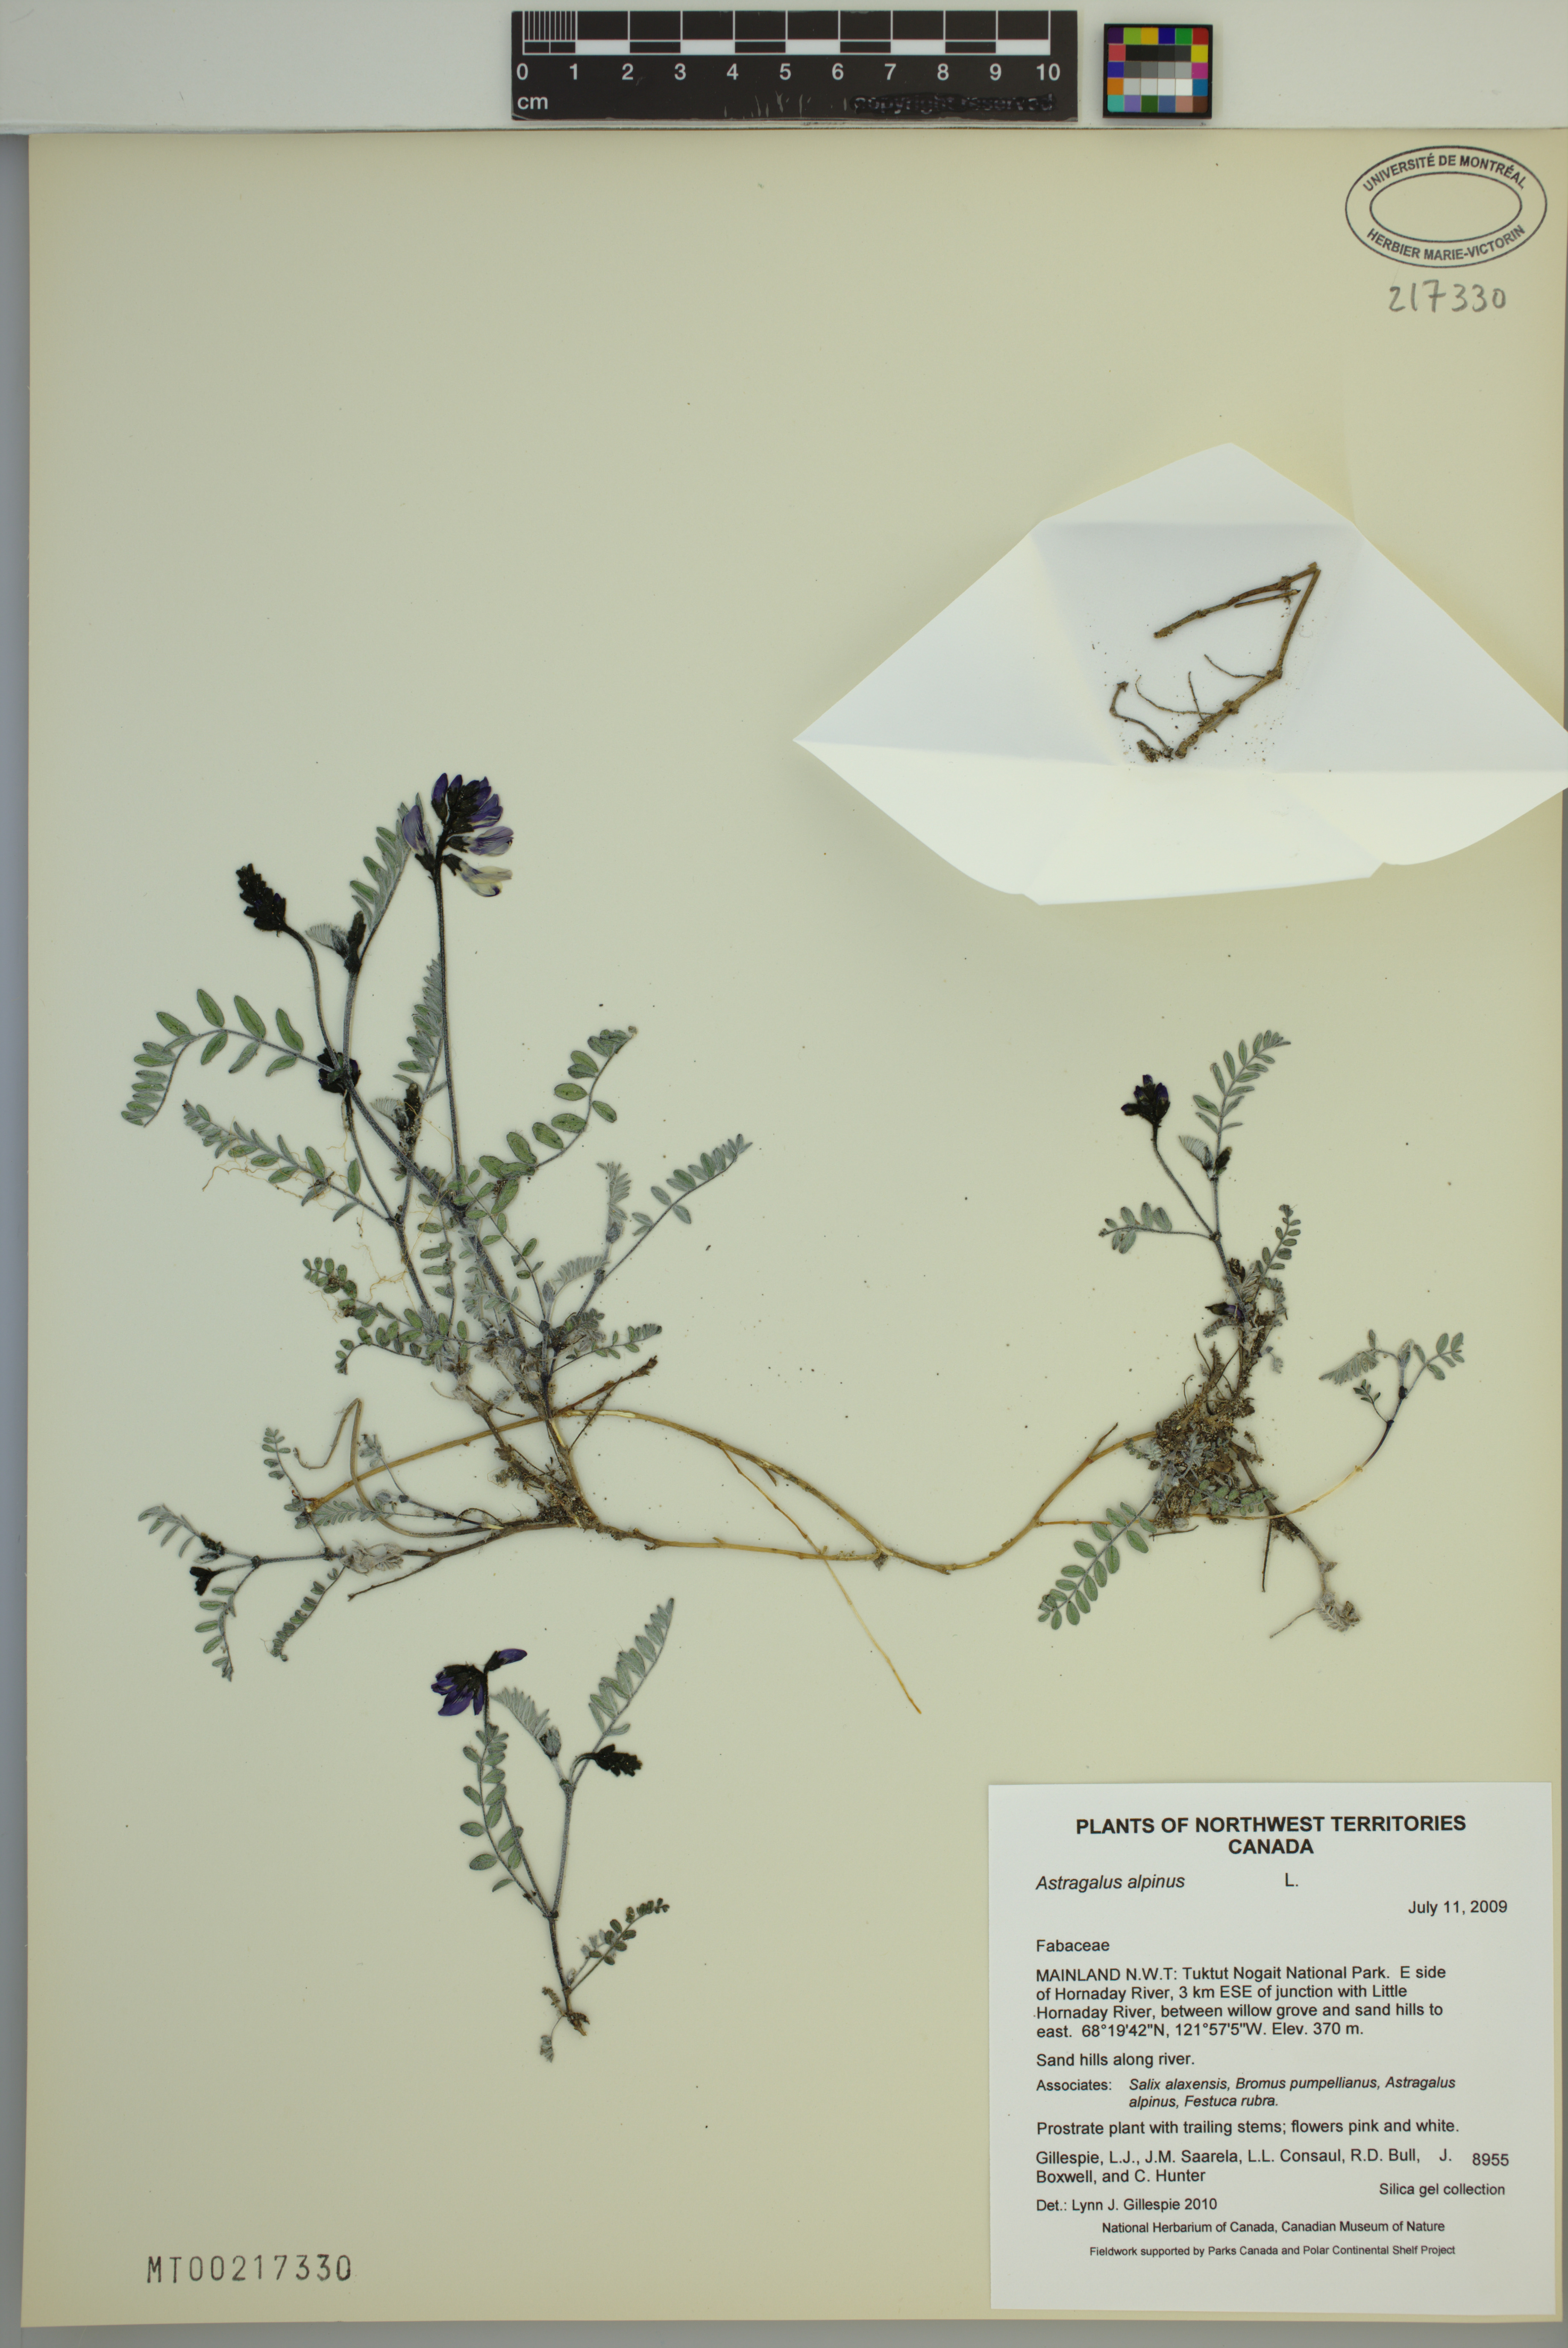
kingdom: Plantae
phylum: Tracheophyta
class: Magnoliopsida
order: Fabales
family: Fabaceae
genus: Astragalus
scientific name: Astragalus alpinus
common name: Alpine milk-vetch
